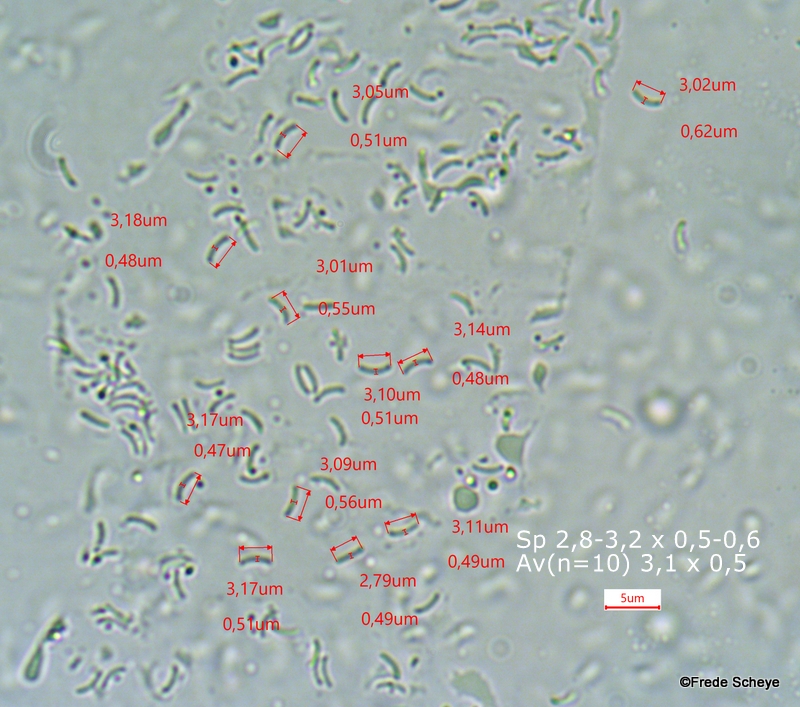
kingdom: Fungi
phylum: Basidiomycota
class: Agaricomycetes
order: Polyporales
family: Incrustoporiaceae
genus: Skeletocutis
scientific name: Skeletocutis nemoralis
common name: stor krystalporesvamp
